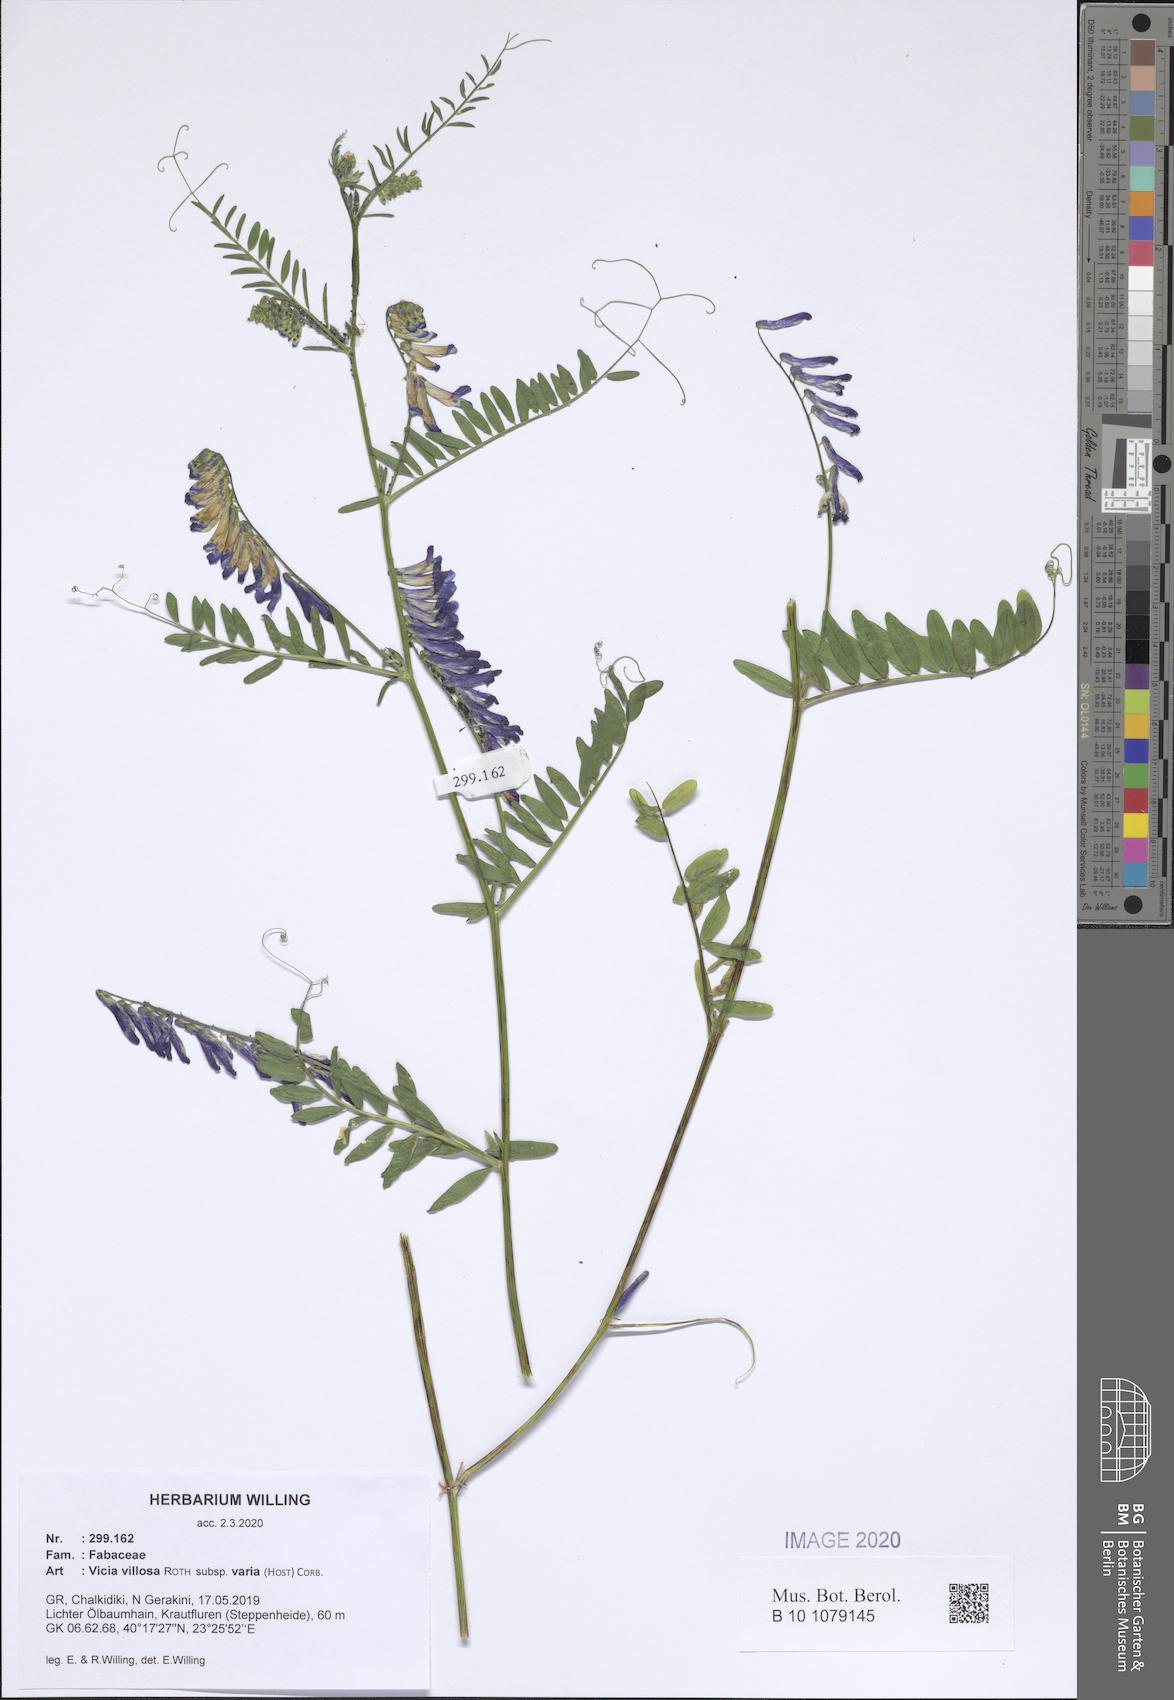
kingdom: Plantae
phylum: Tracheophyta
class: Magnoliopsida
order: Fabales
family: Fabaceae
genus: Vicia
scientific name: Vicia villosa
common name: Fodder vetch
